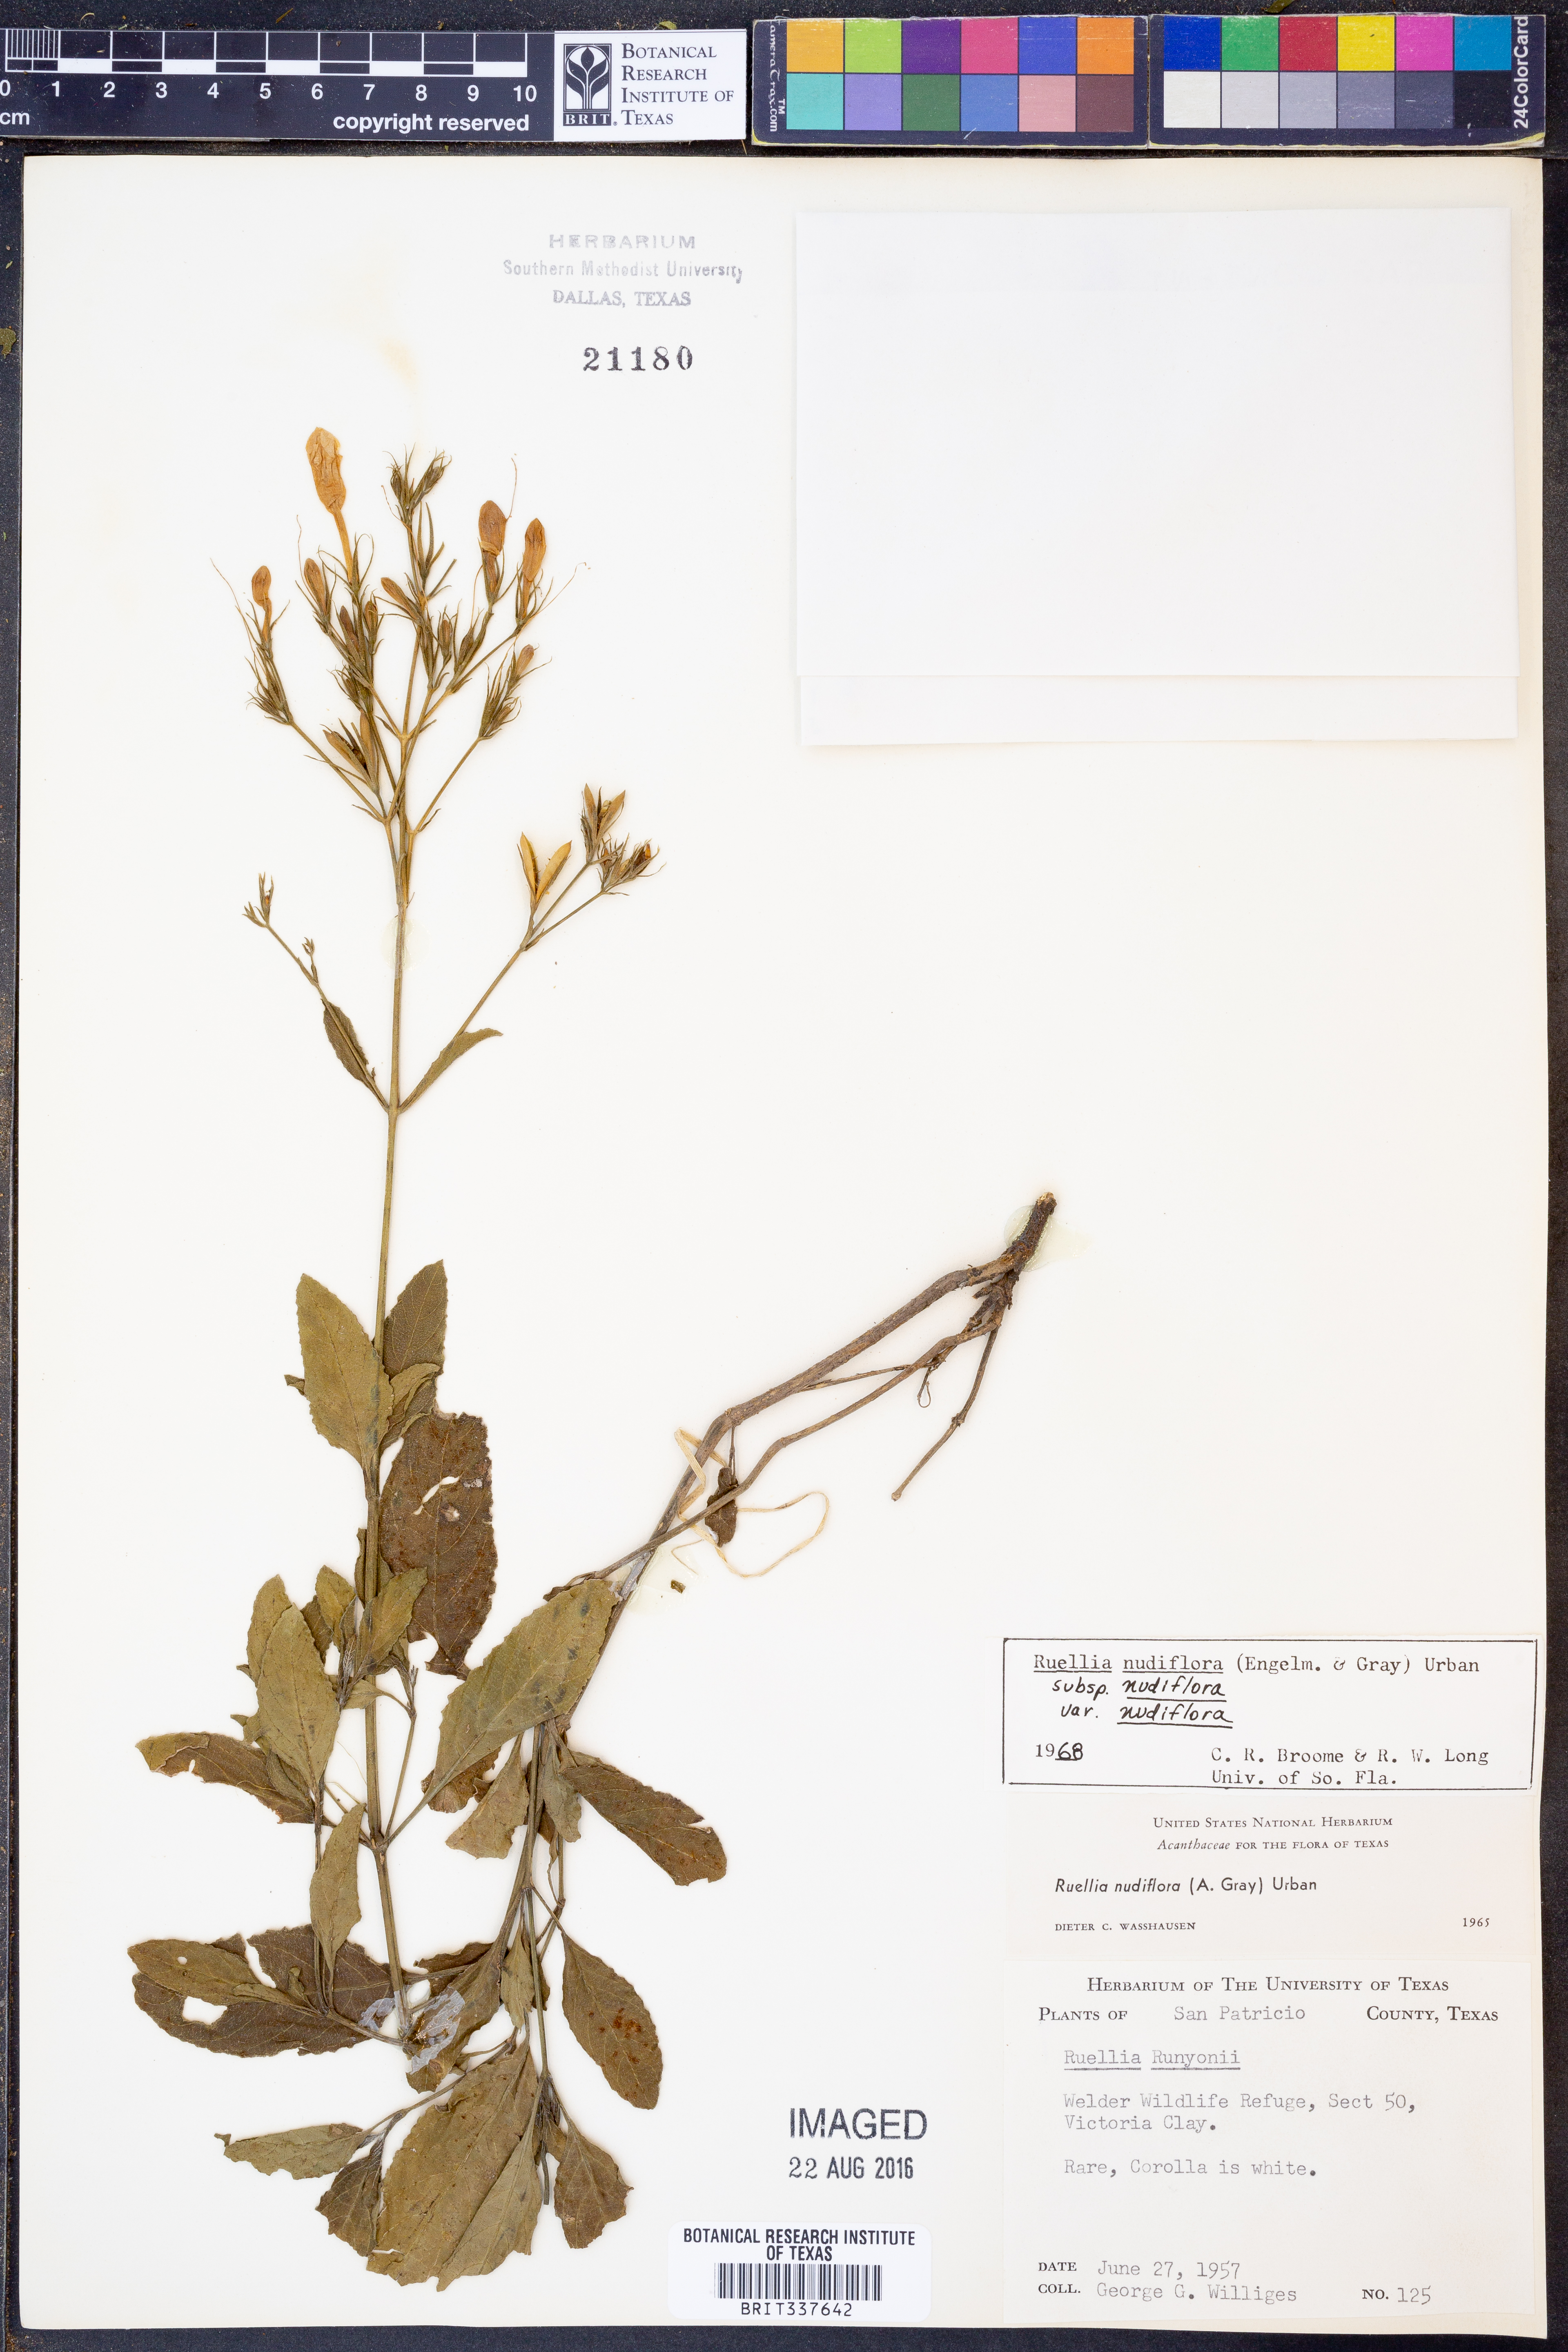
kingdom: Plantae
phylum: Tracheophyta
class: Magnoliopsida
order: Lamiales
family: Acanthaceae
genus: Ruellia
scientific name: Ruellia ciliatiflora
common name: Hairyflower wild petunia
